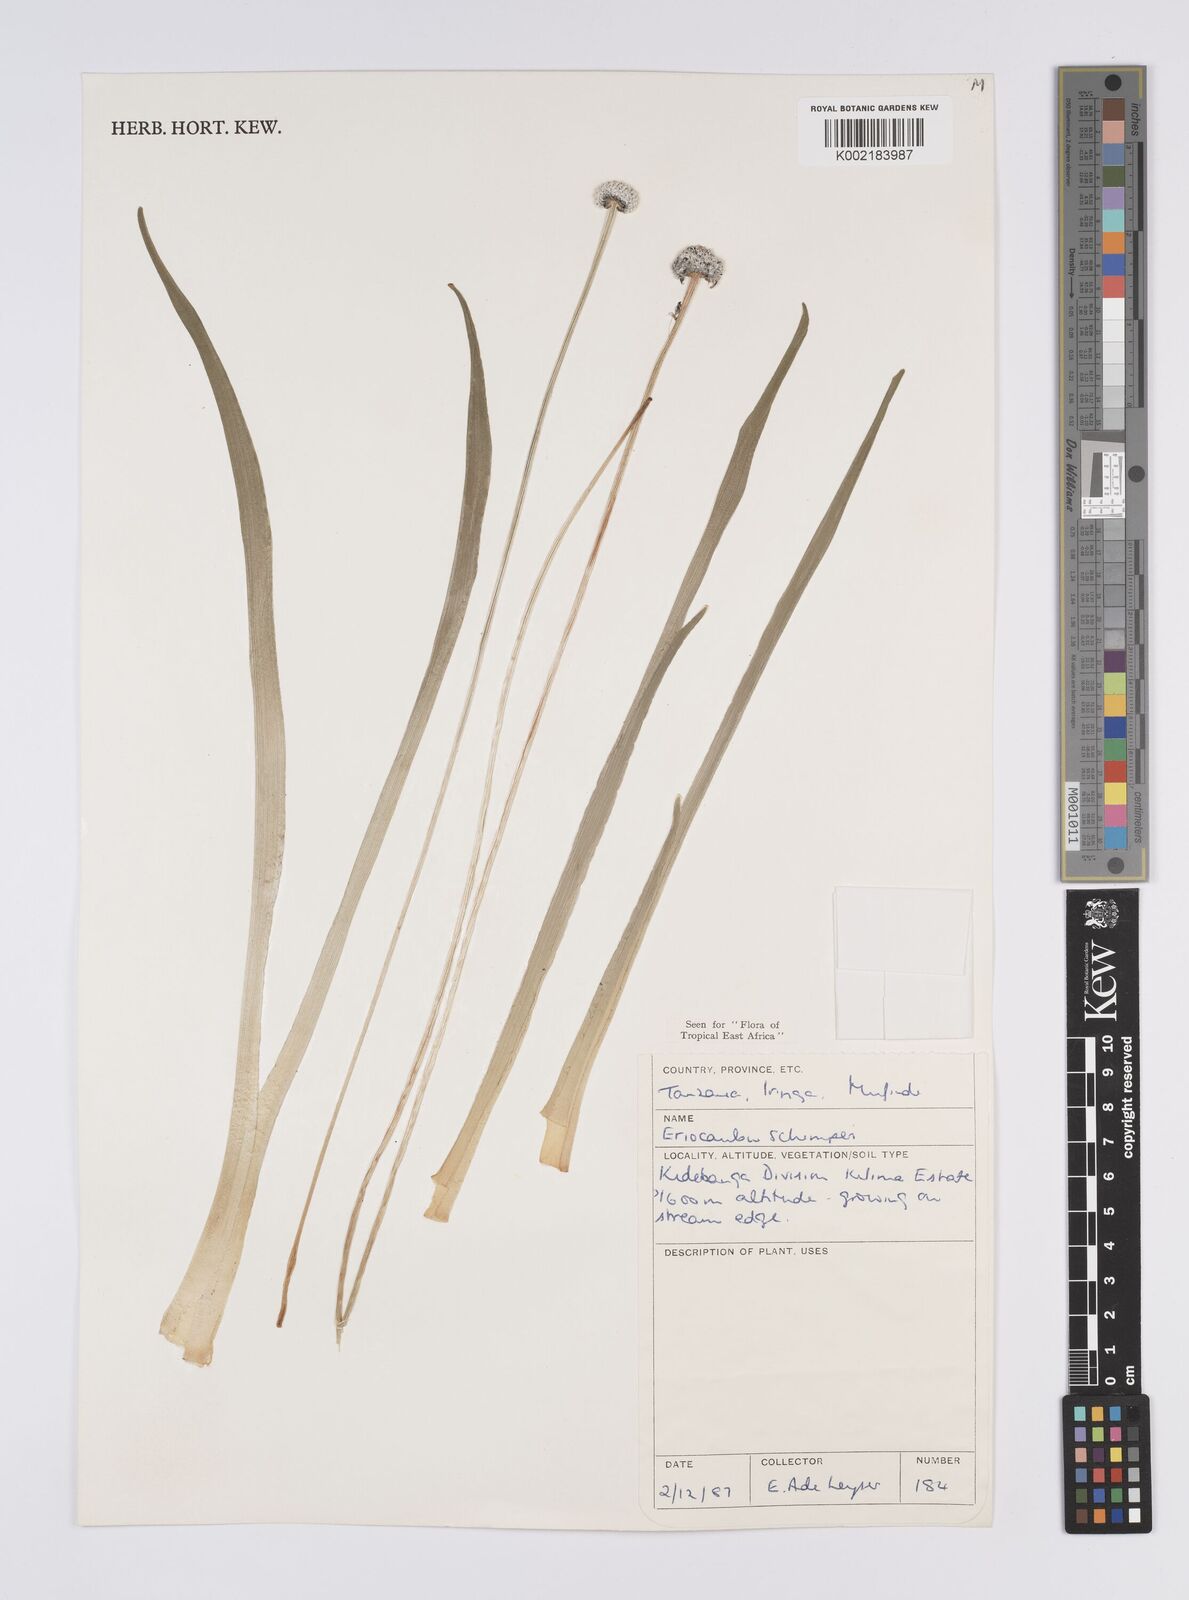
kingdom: Plantae
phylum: Tracheophyta
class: Liliopsida
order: Poales
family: Eriocaulaceae
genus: Eriocaulon
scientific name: Eriocaulon schimperi
